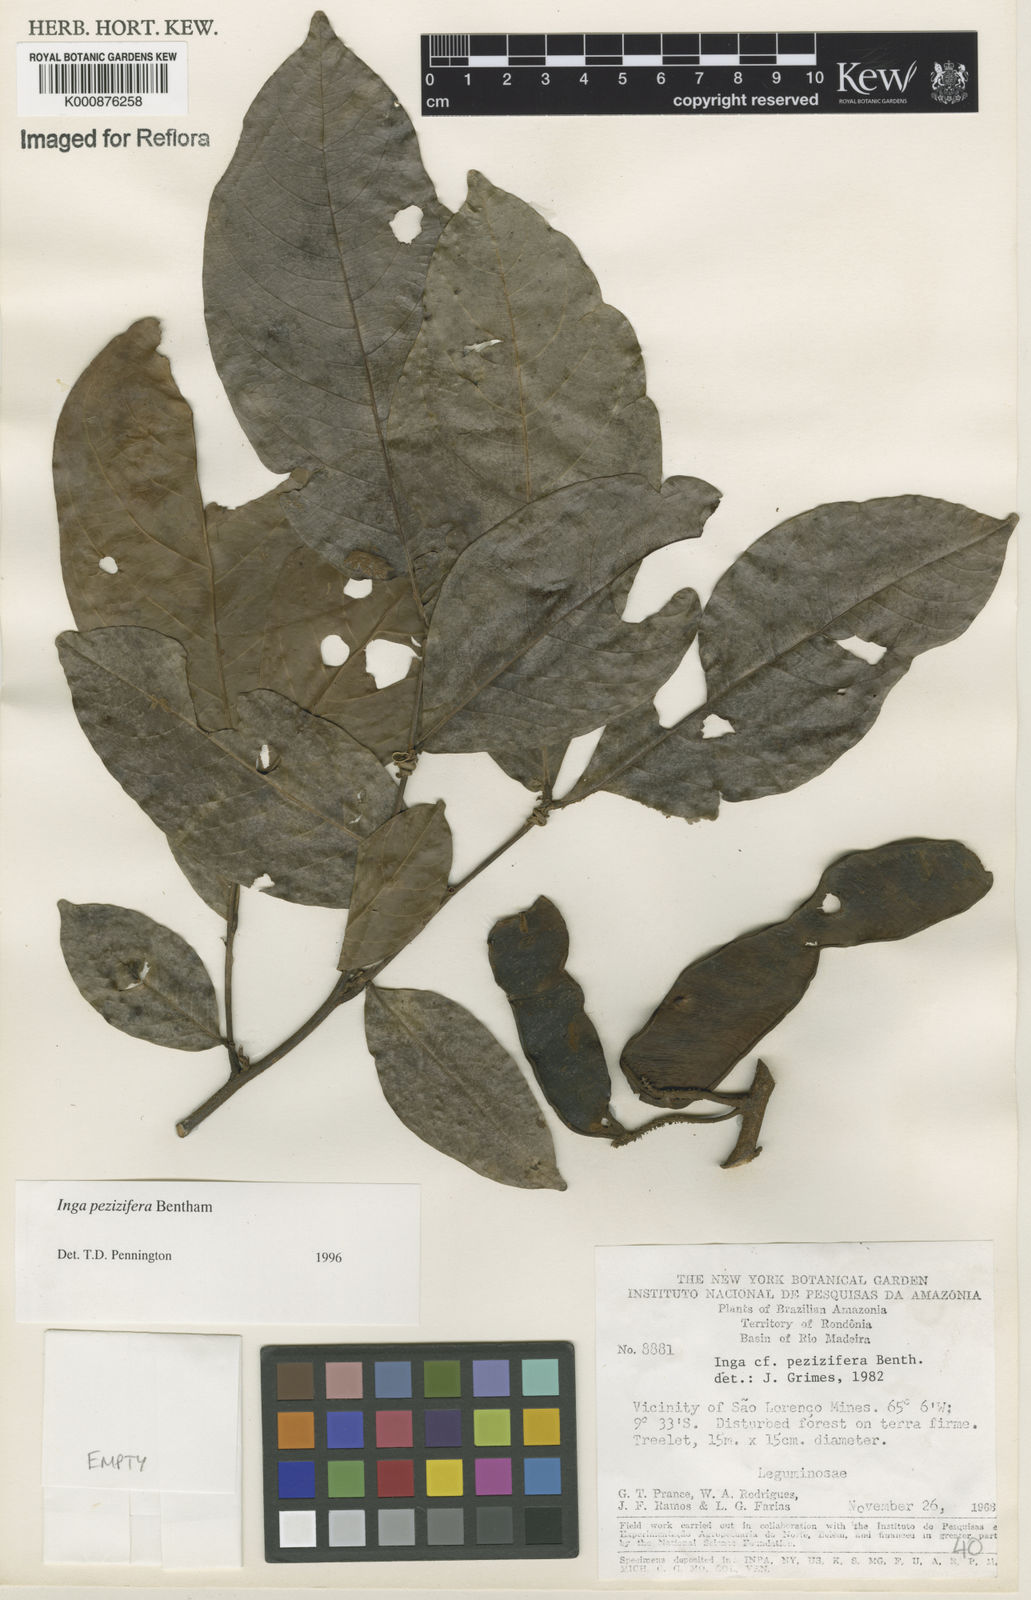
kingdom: Plantae
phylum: Tracheophyta
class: Magnoliopsida
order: Fabales
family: Fabaceae
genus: Inga
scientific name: Inga pezizifera
